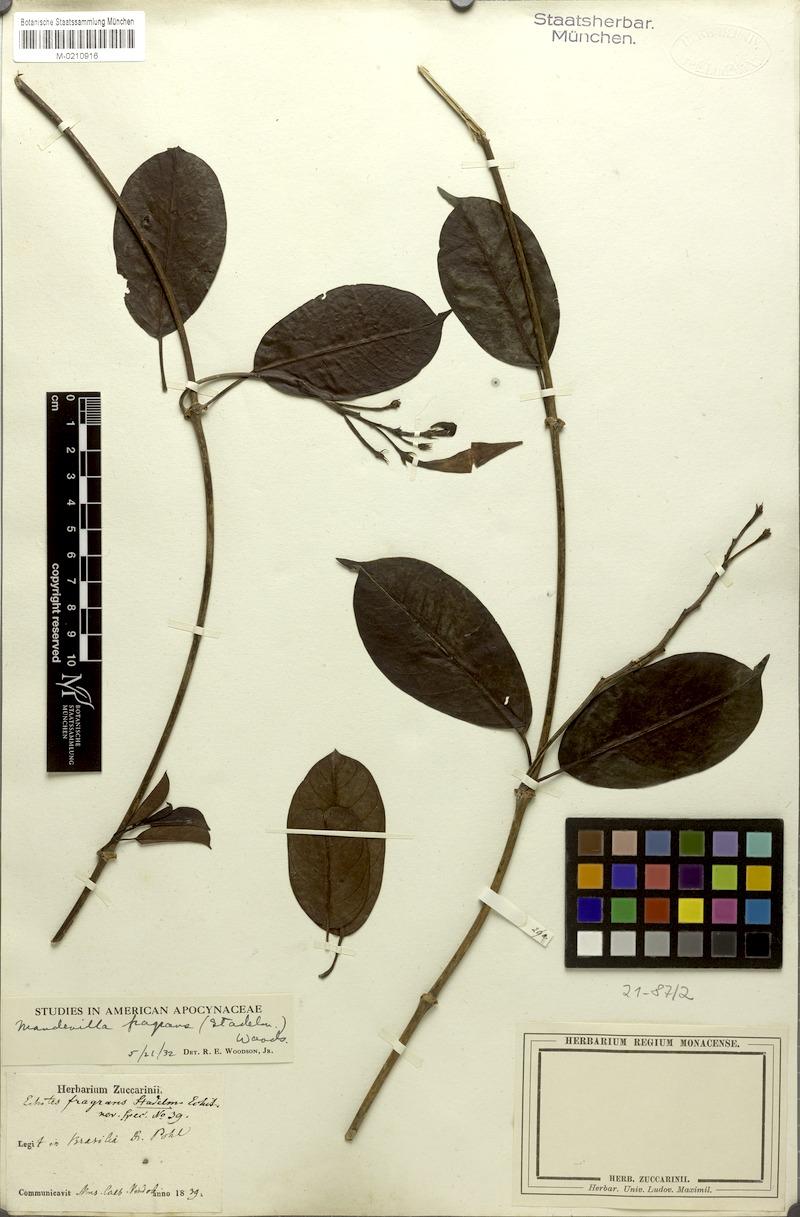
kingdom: Plantae
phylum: Tracheophyta
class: Magnoliopsida
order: Gentianales
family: Apocynaceae
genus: Mandevilla
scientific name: Mandevilla fragrans
